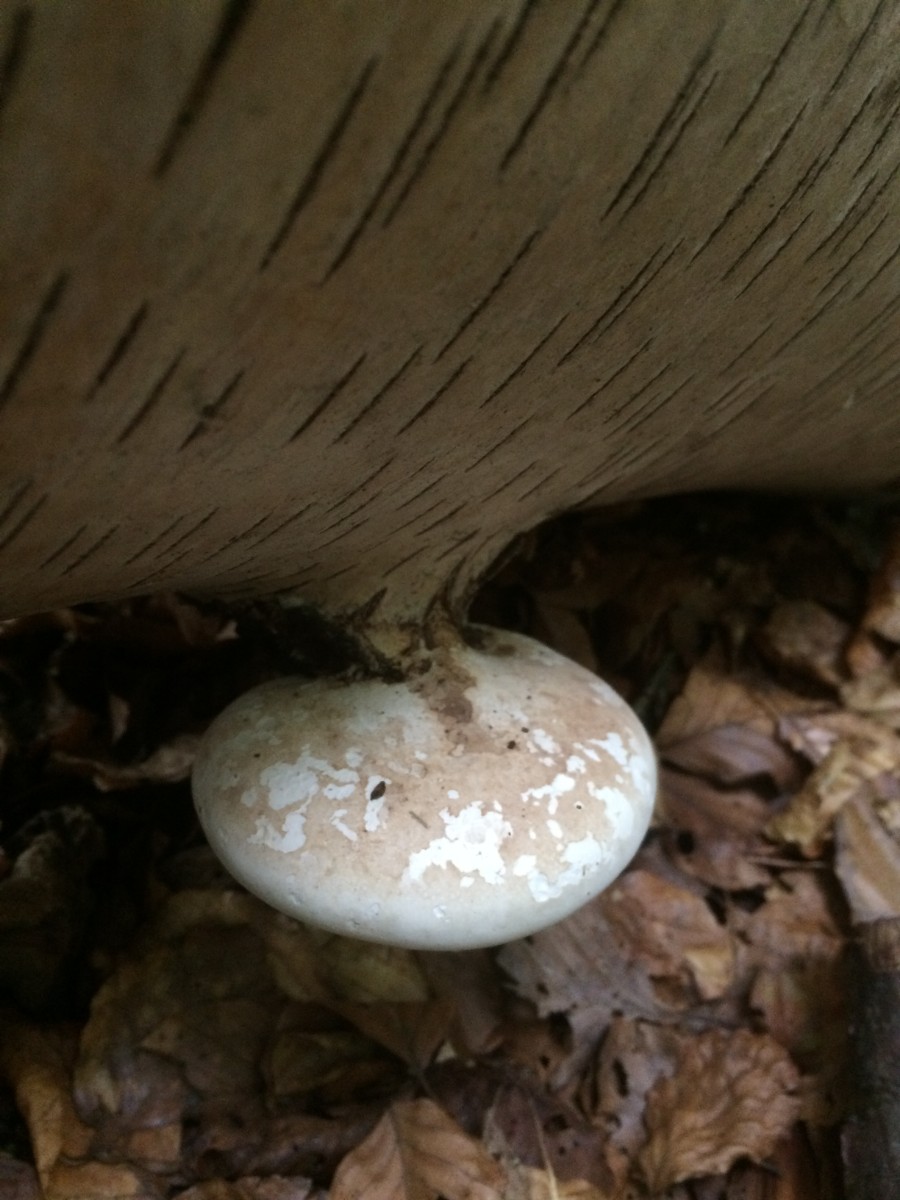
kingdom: Fungi
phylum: Basidiomycota
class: Agaricomycetes
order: Polyporales
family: Fomitopsidaceae
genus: Fomitopsis
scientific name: Fomitopsis betulina
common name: birkeporesvamp
